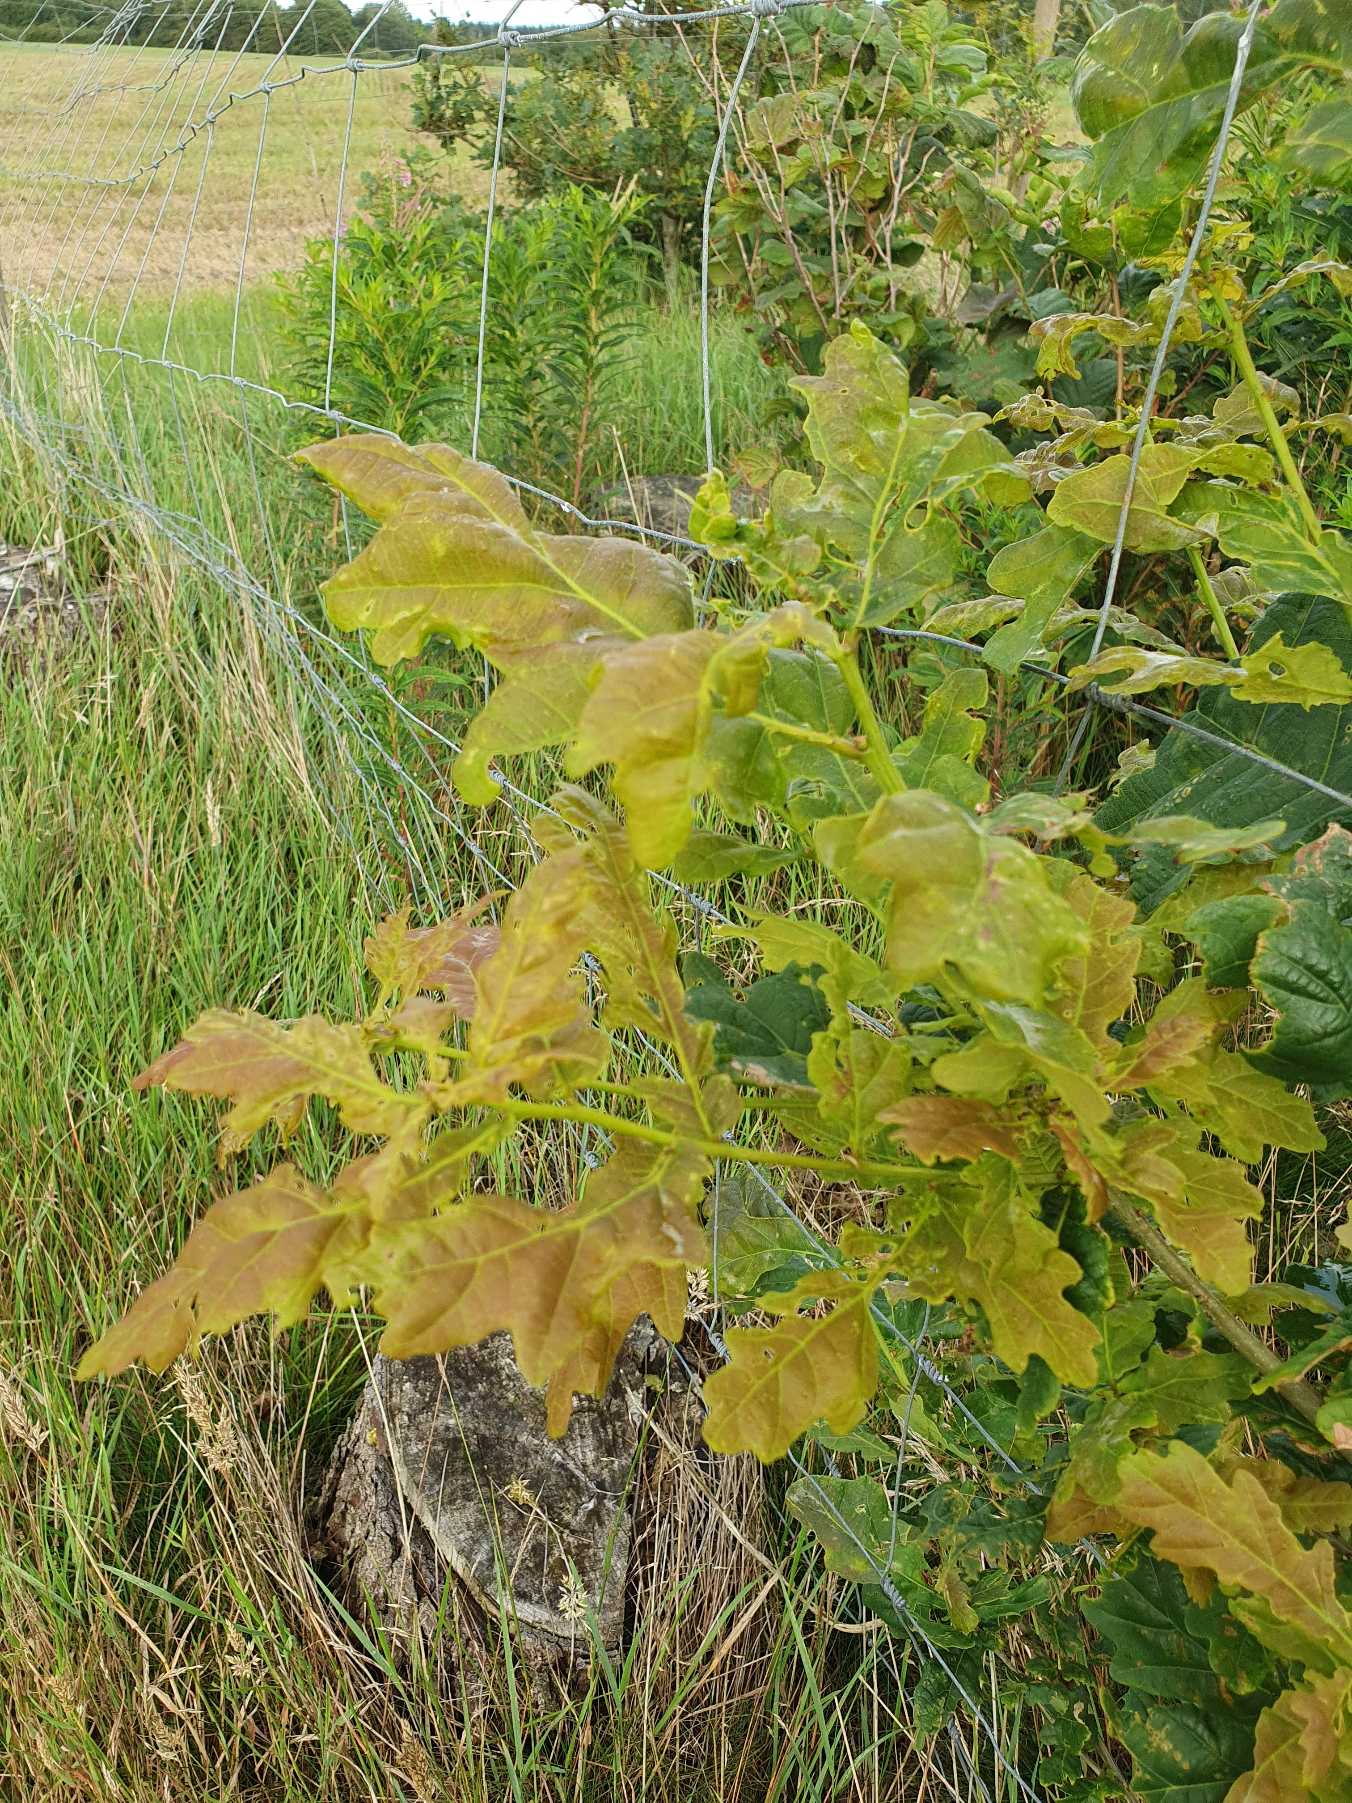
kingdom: Plantae
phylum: Tracheophyta
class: Magnoliopsida
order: Fagales
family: Fagaceae
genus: Quercus
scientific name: Quercus robur
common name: Stilk-eg/almindelig eg
